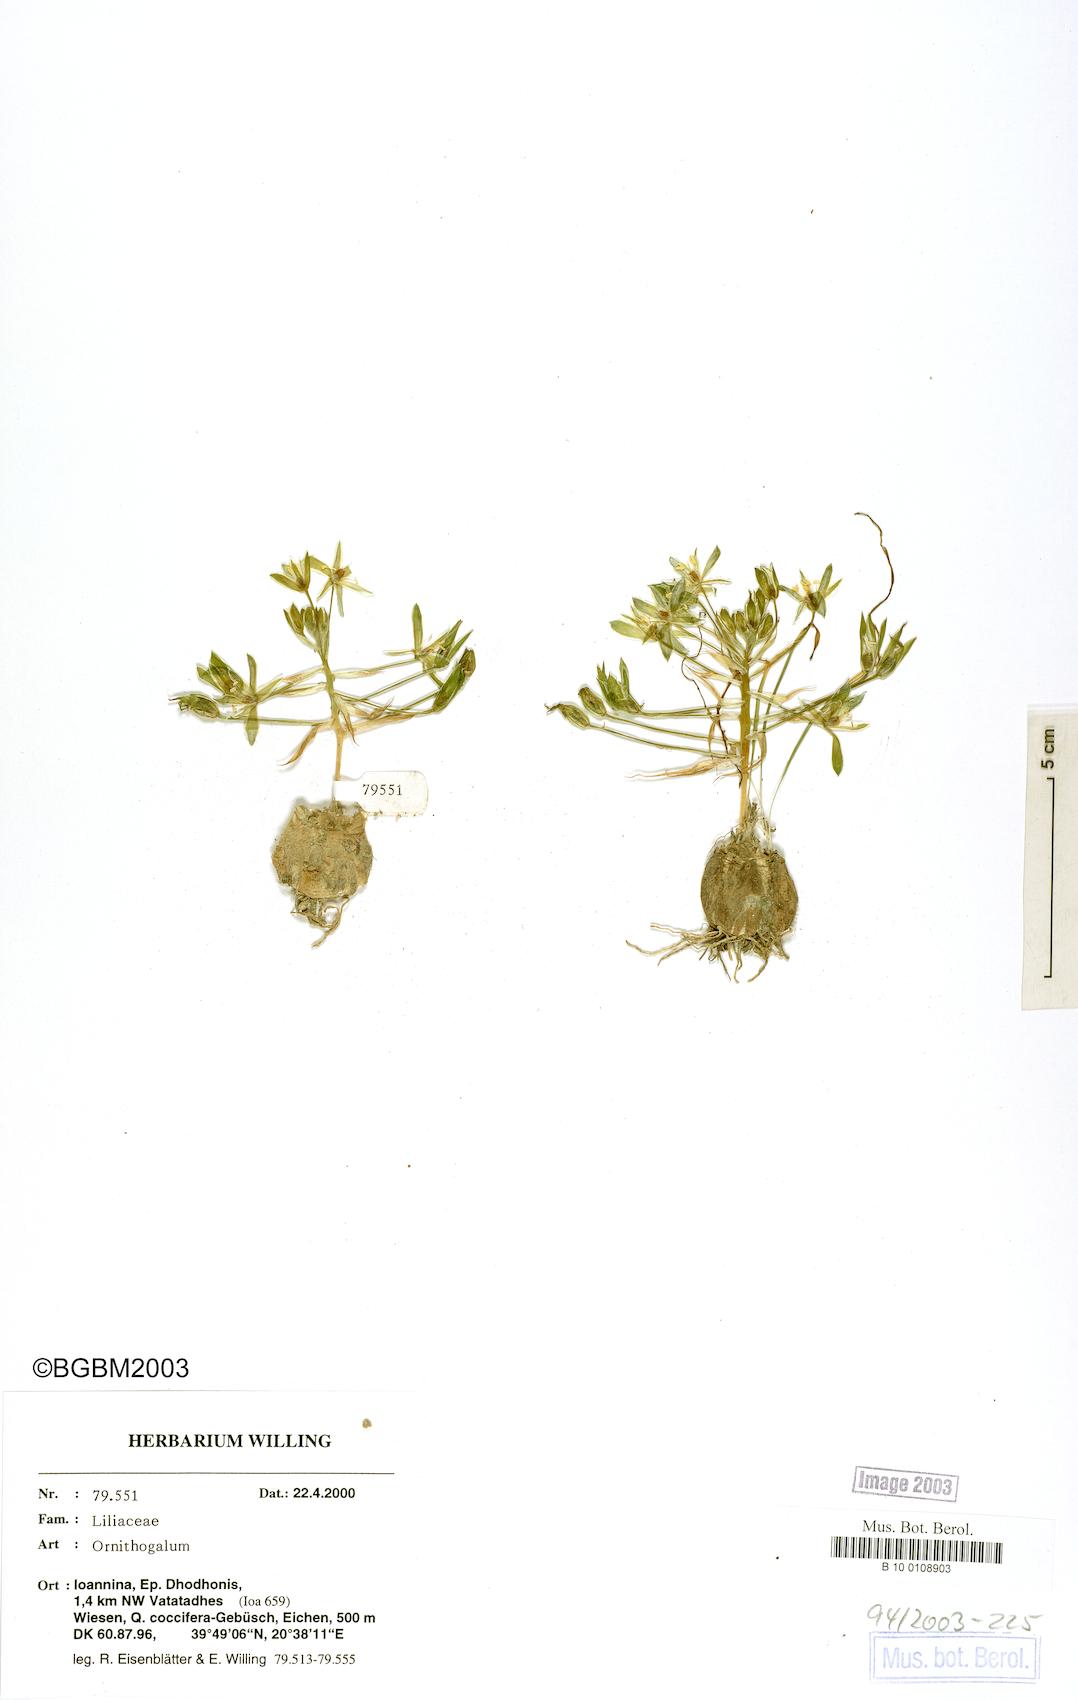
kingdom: Plantae
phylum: Tracheophyta
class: Liliopsida
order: Asparagales
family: Asparagaceae
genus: Ornithogalum
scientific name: Ornithogalum
